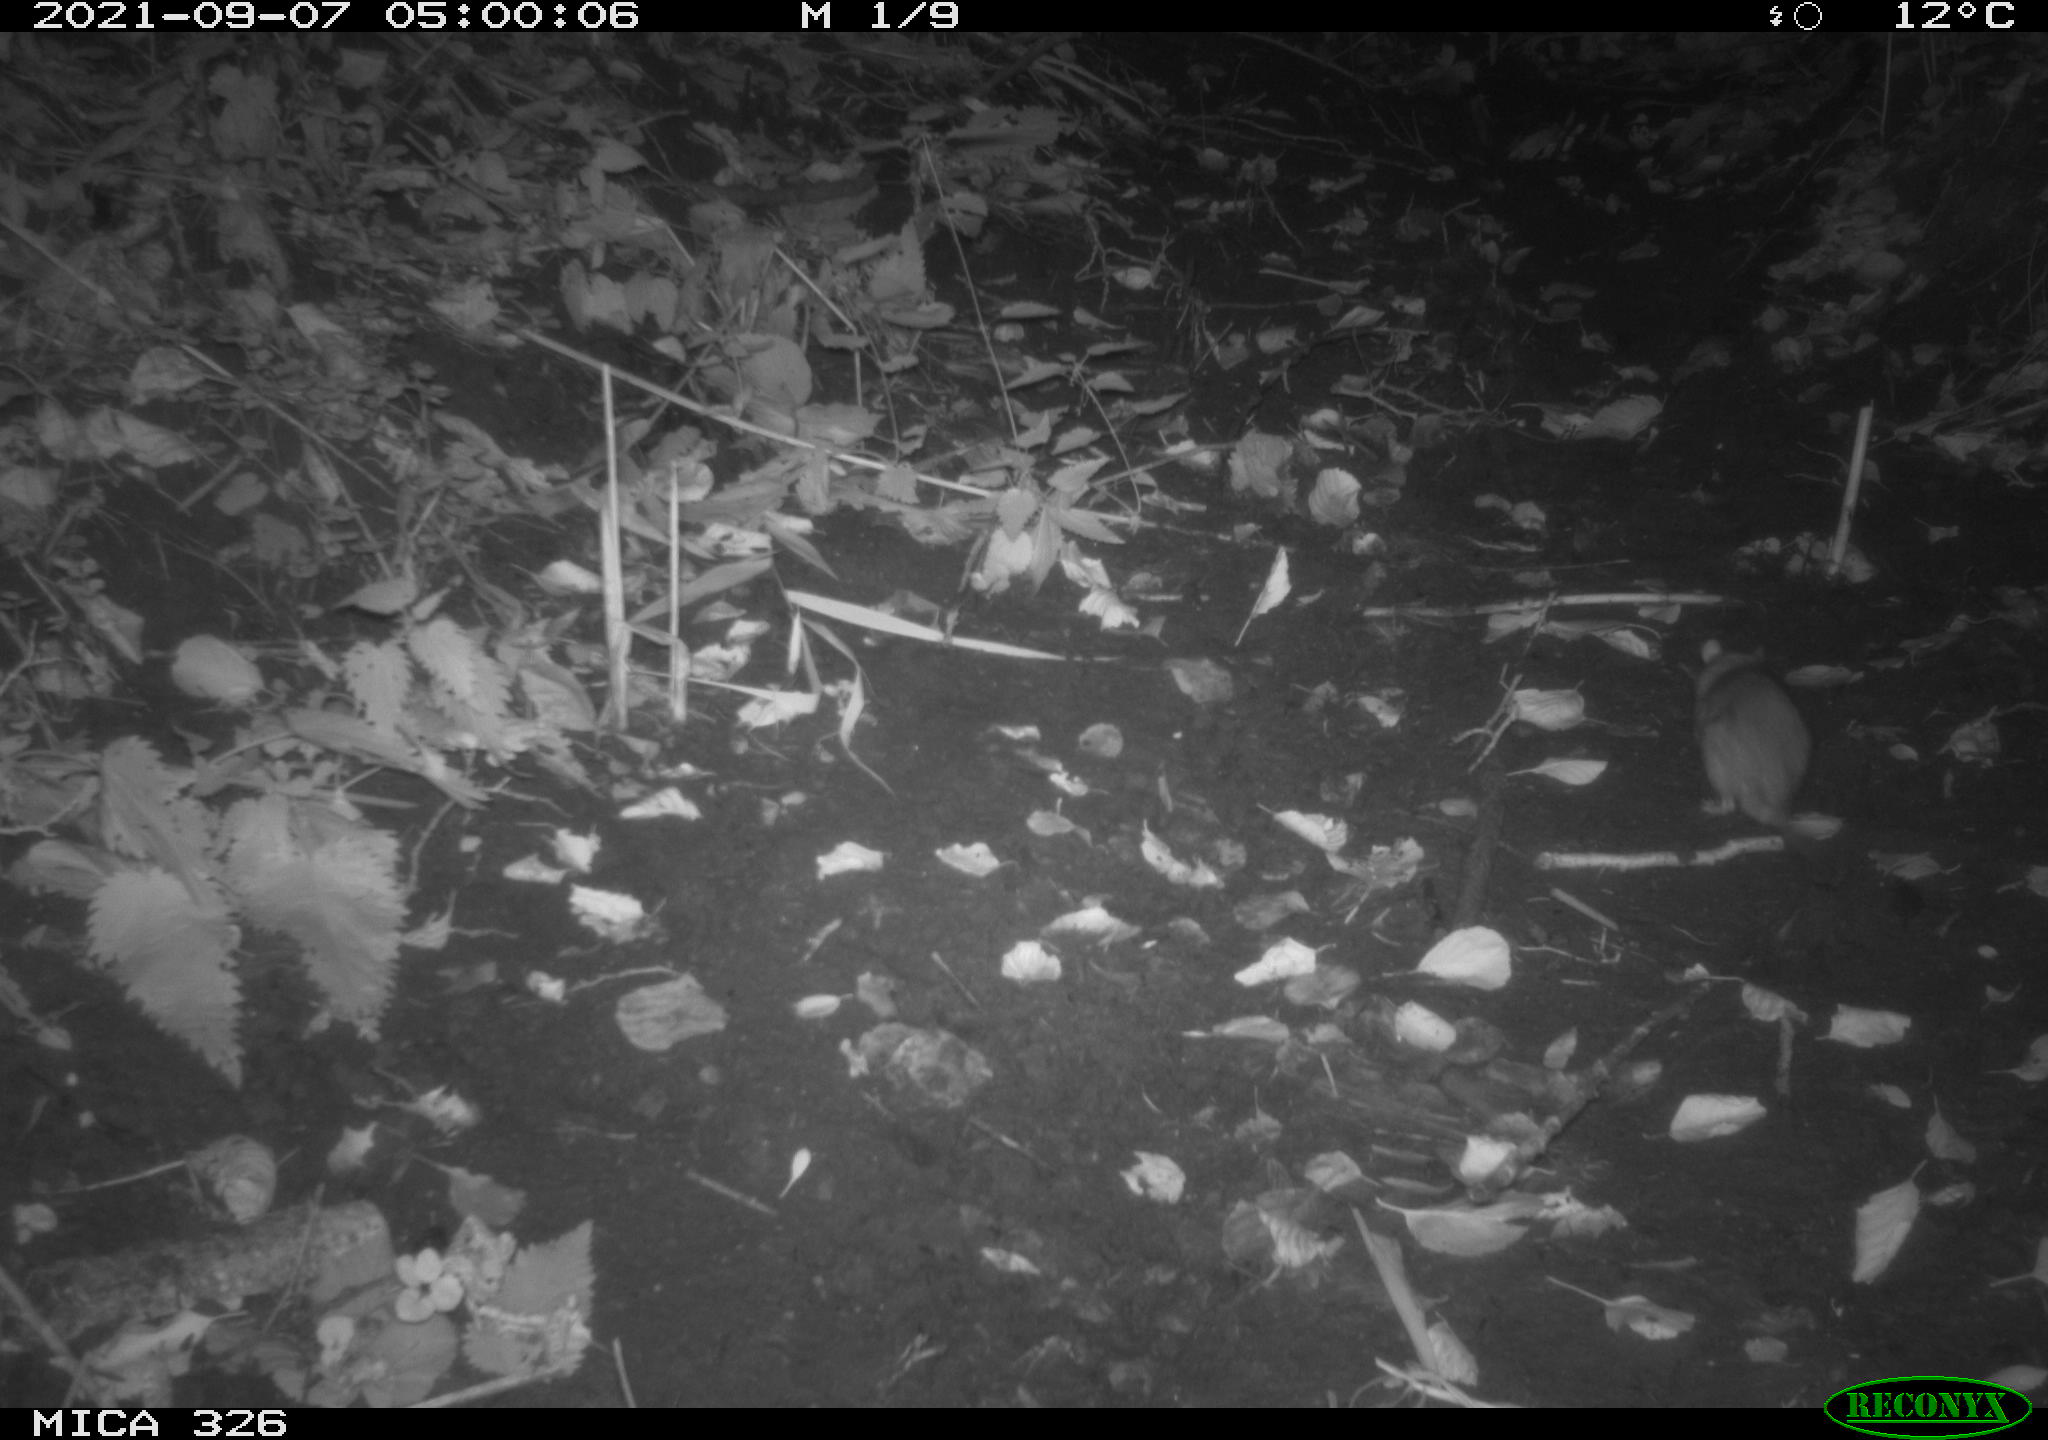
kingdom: Animalia
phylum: Chordata
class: Mammalia
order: Rodentia
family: Muridae
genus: Rattus
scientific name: Rattus norvegicus
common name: Brown rat
